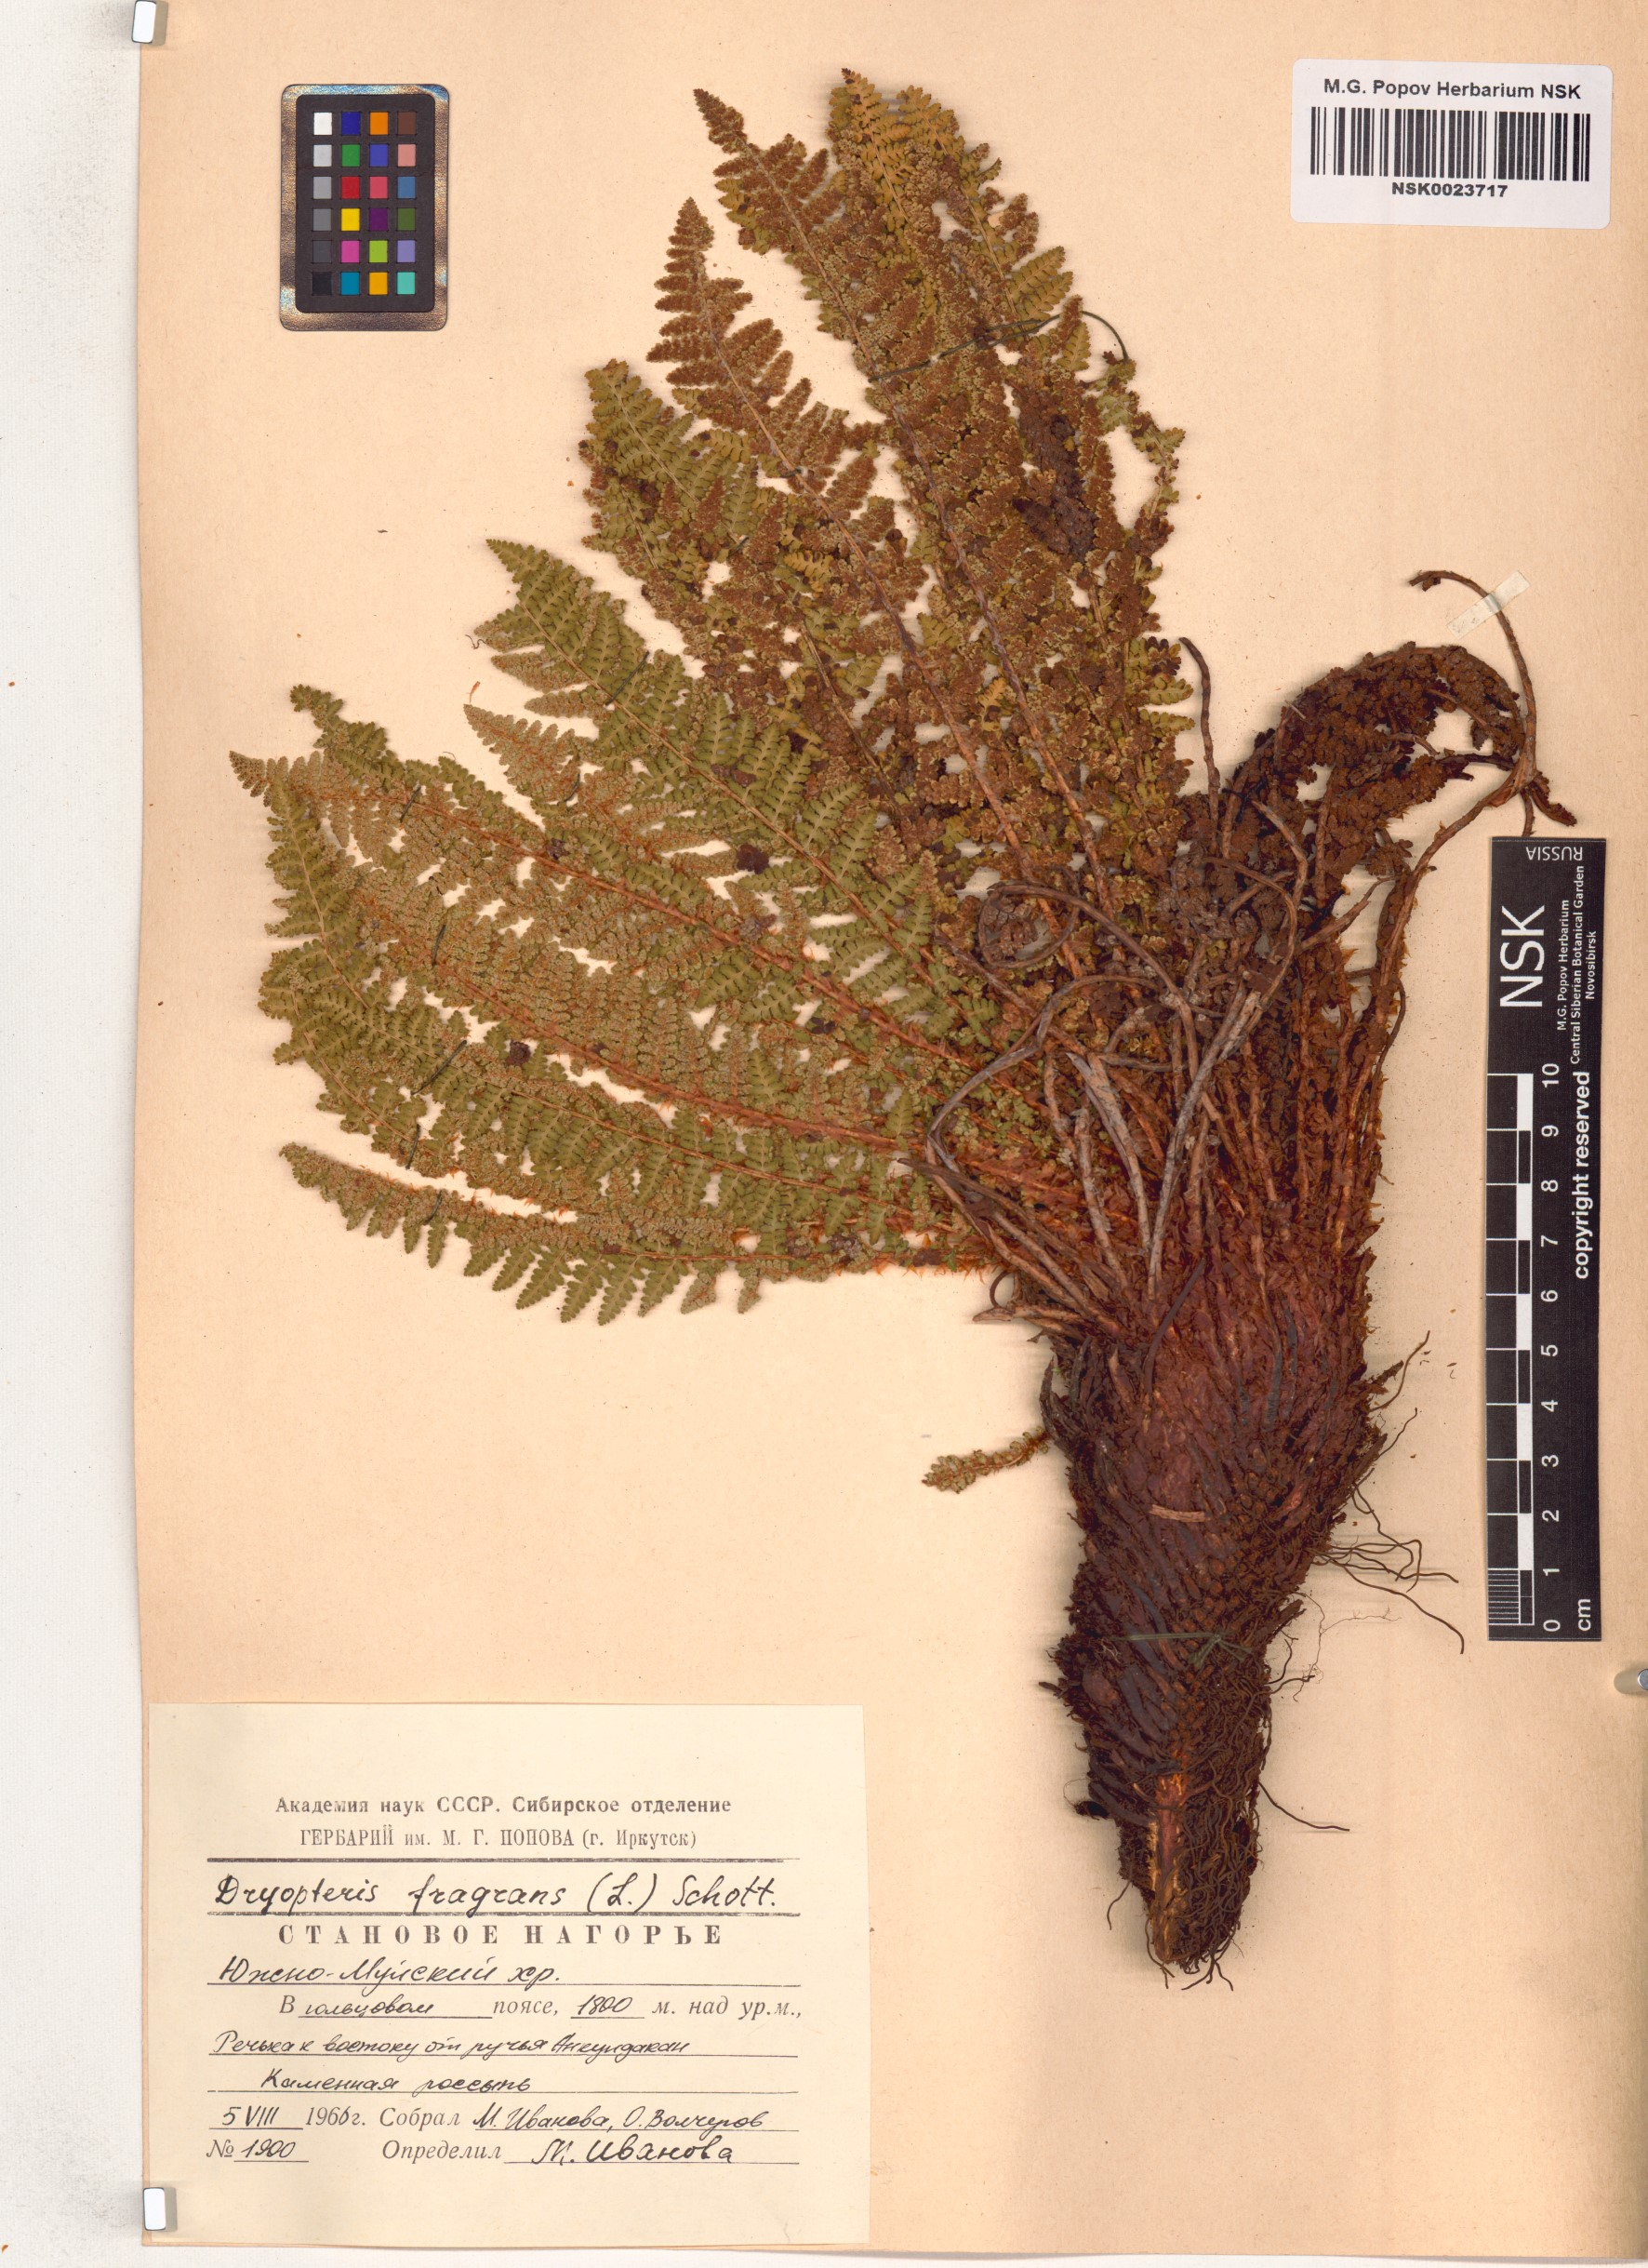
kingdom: Plantae
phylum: Tracheophyta
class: Polypodiopsida
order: Polypodiales
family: Dryopteridaceae
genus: Dryopteris
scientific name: Dryopteris fragrans
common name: Fragrant wood fern
